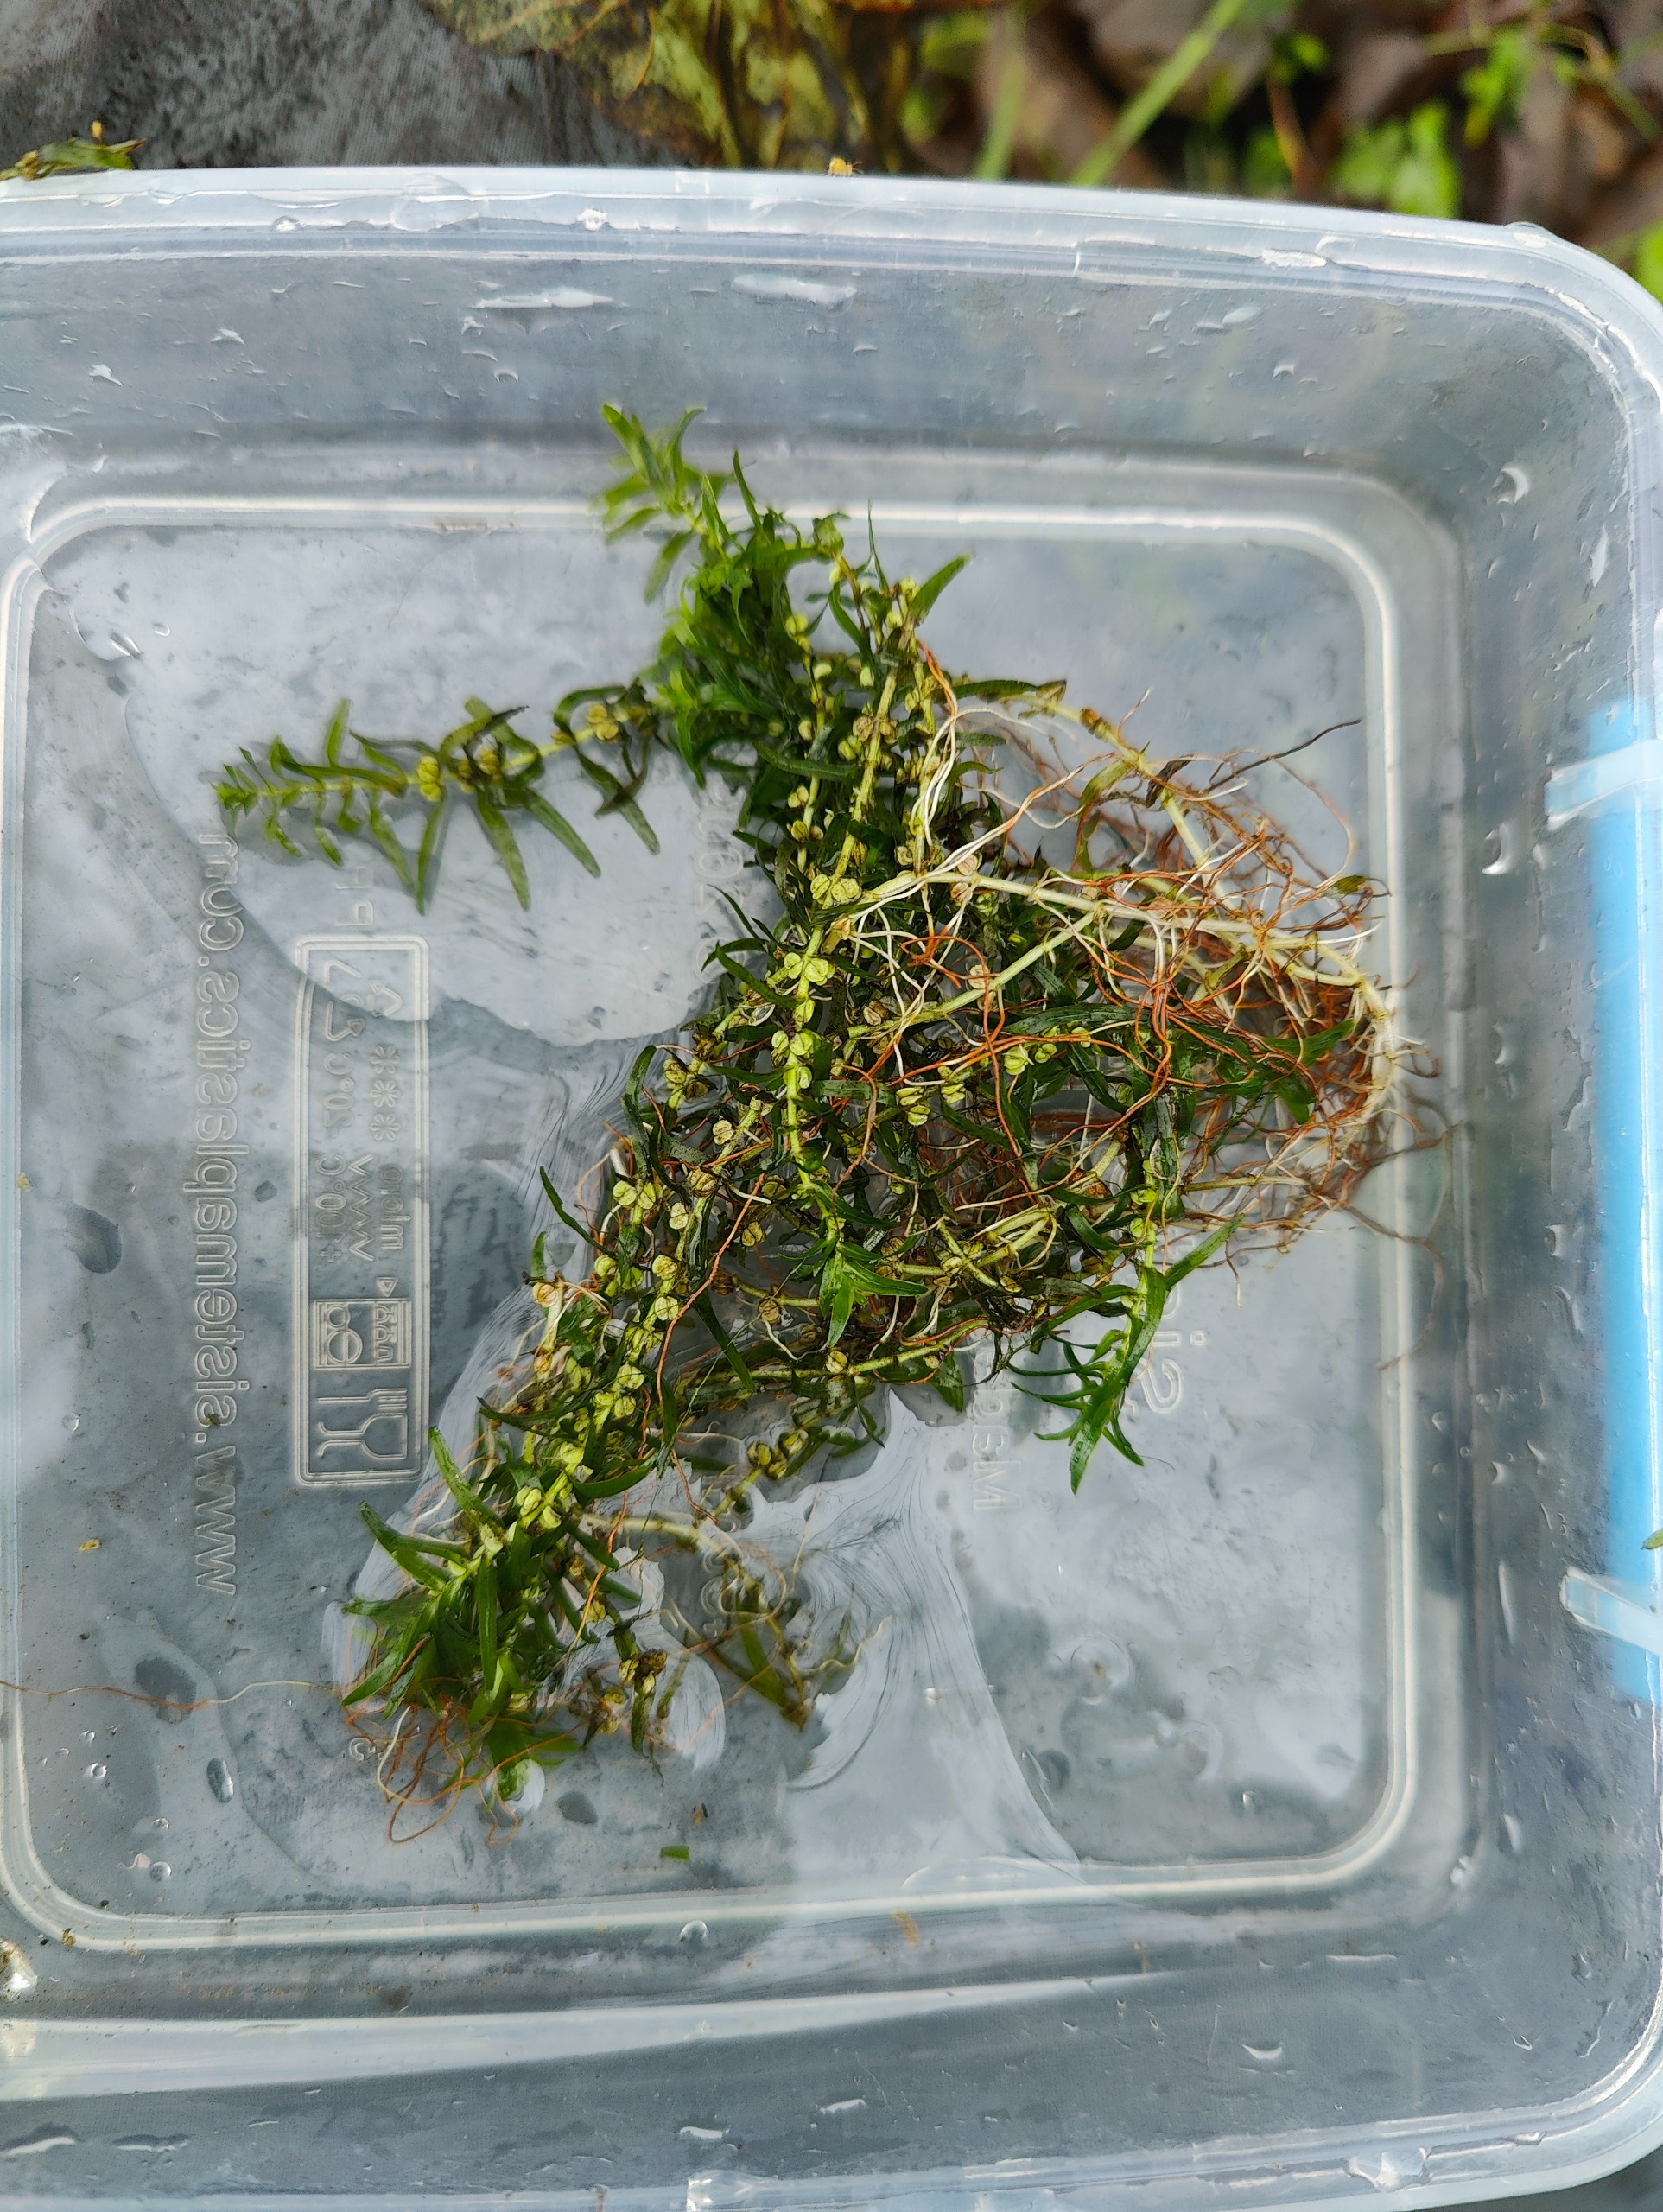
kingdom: Plantae
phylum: Tracheophyta
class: Magnoliopsida
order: Lamiales
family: Plantaginaceae
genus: Callitriche
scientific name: Callitriche hermaphroditica
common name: Høst-vandstjerne
